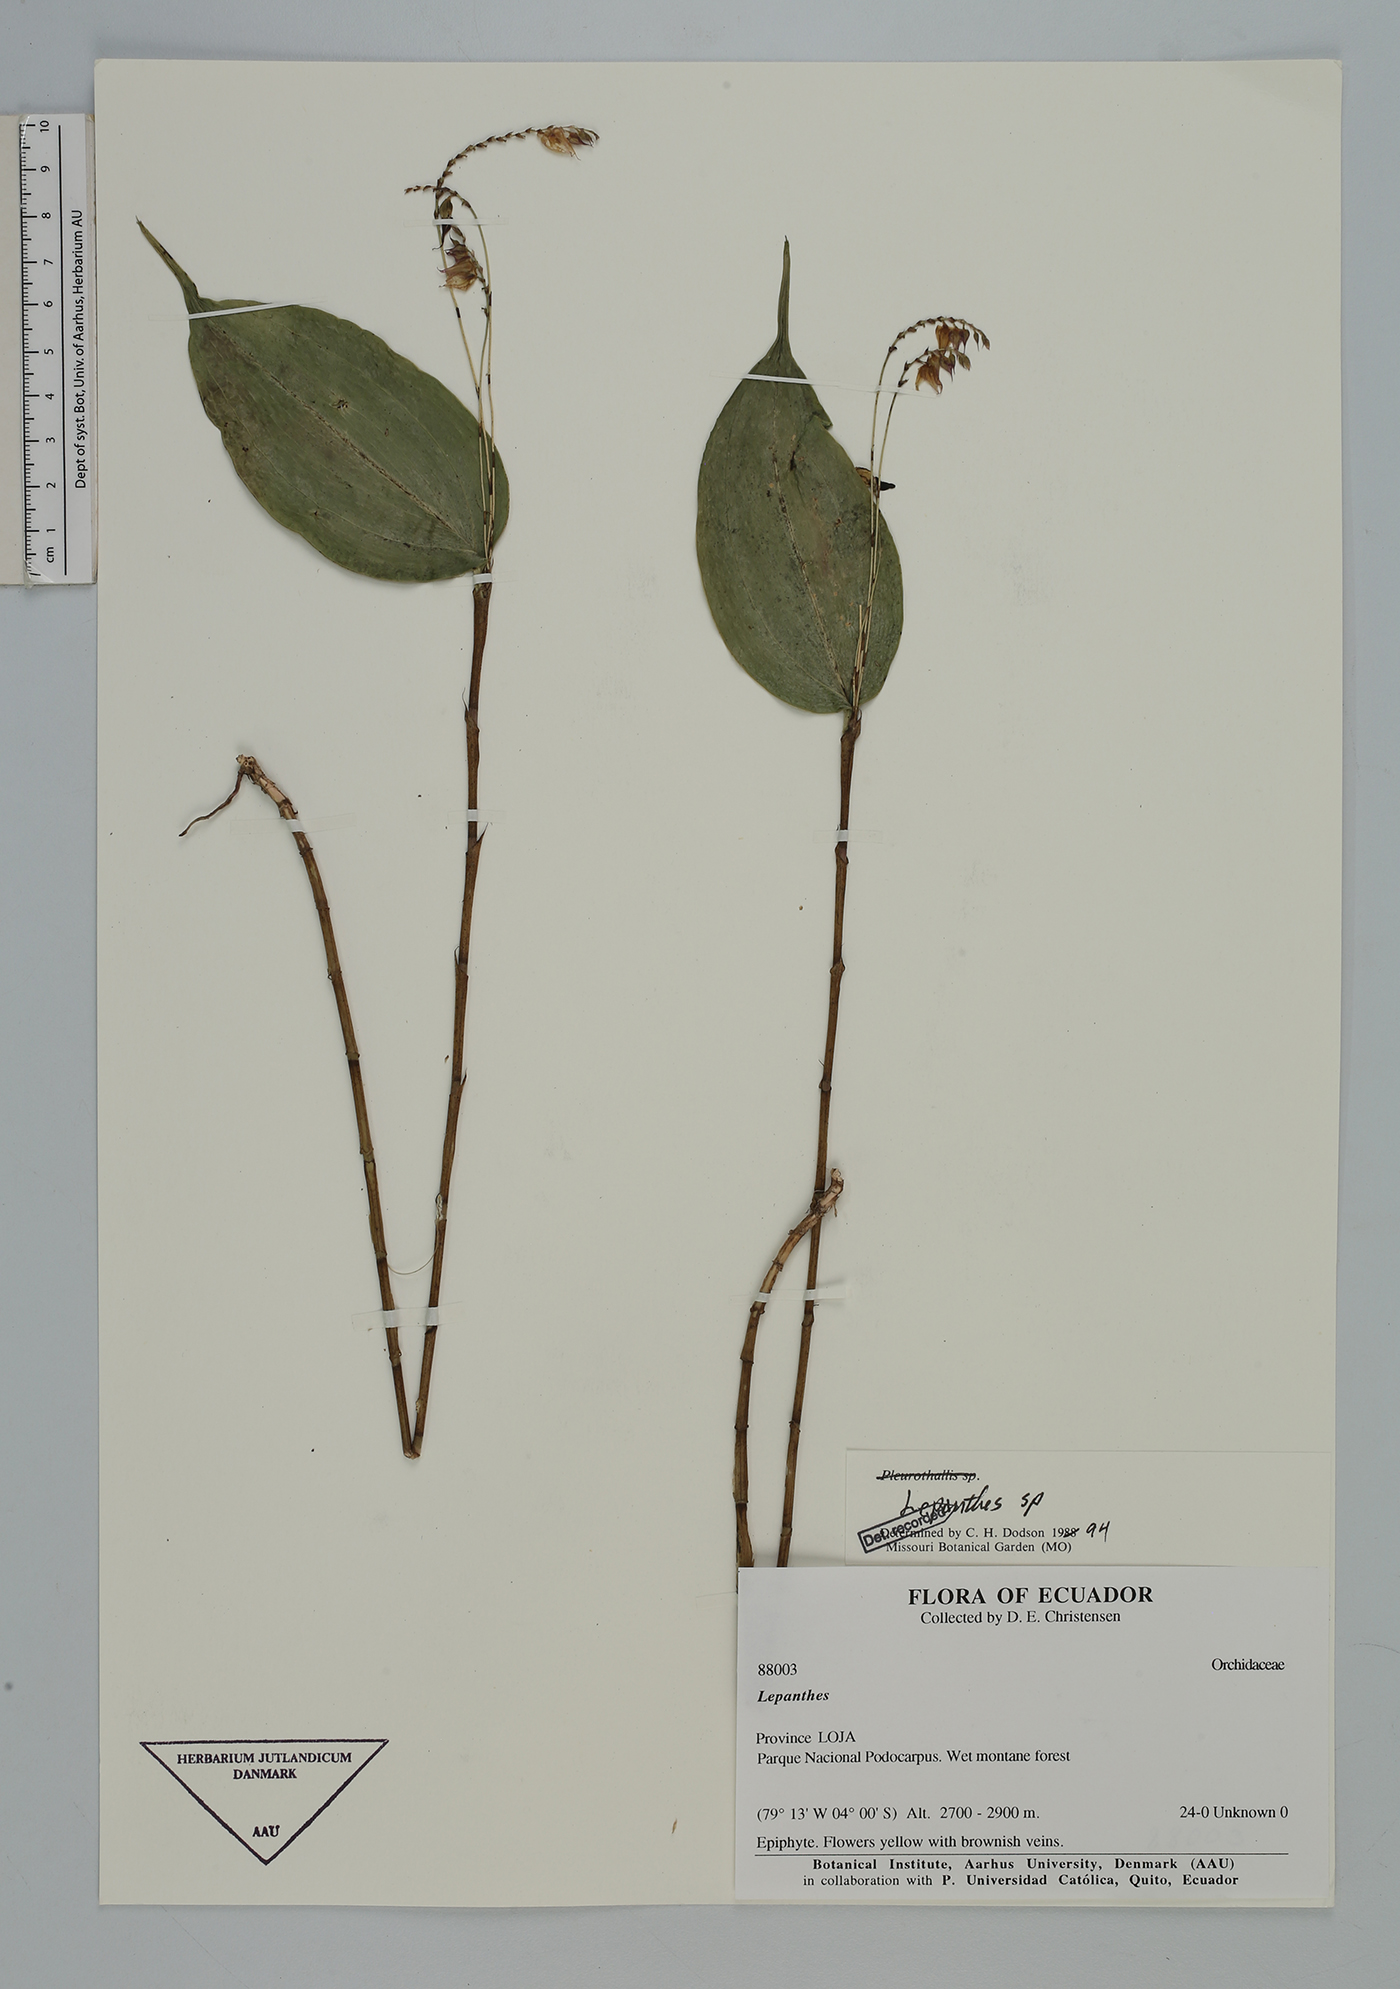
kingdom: Plantae
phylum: Tracheophyta
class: Liliopsida
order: Asparagales
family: Orchidaceae
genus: Lepanthes
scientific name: Lepanthes
